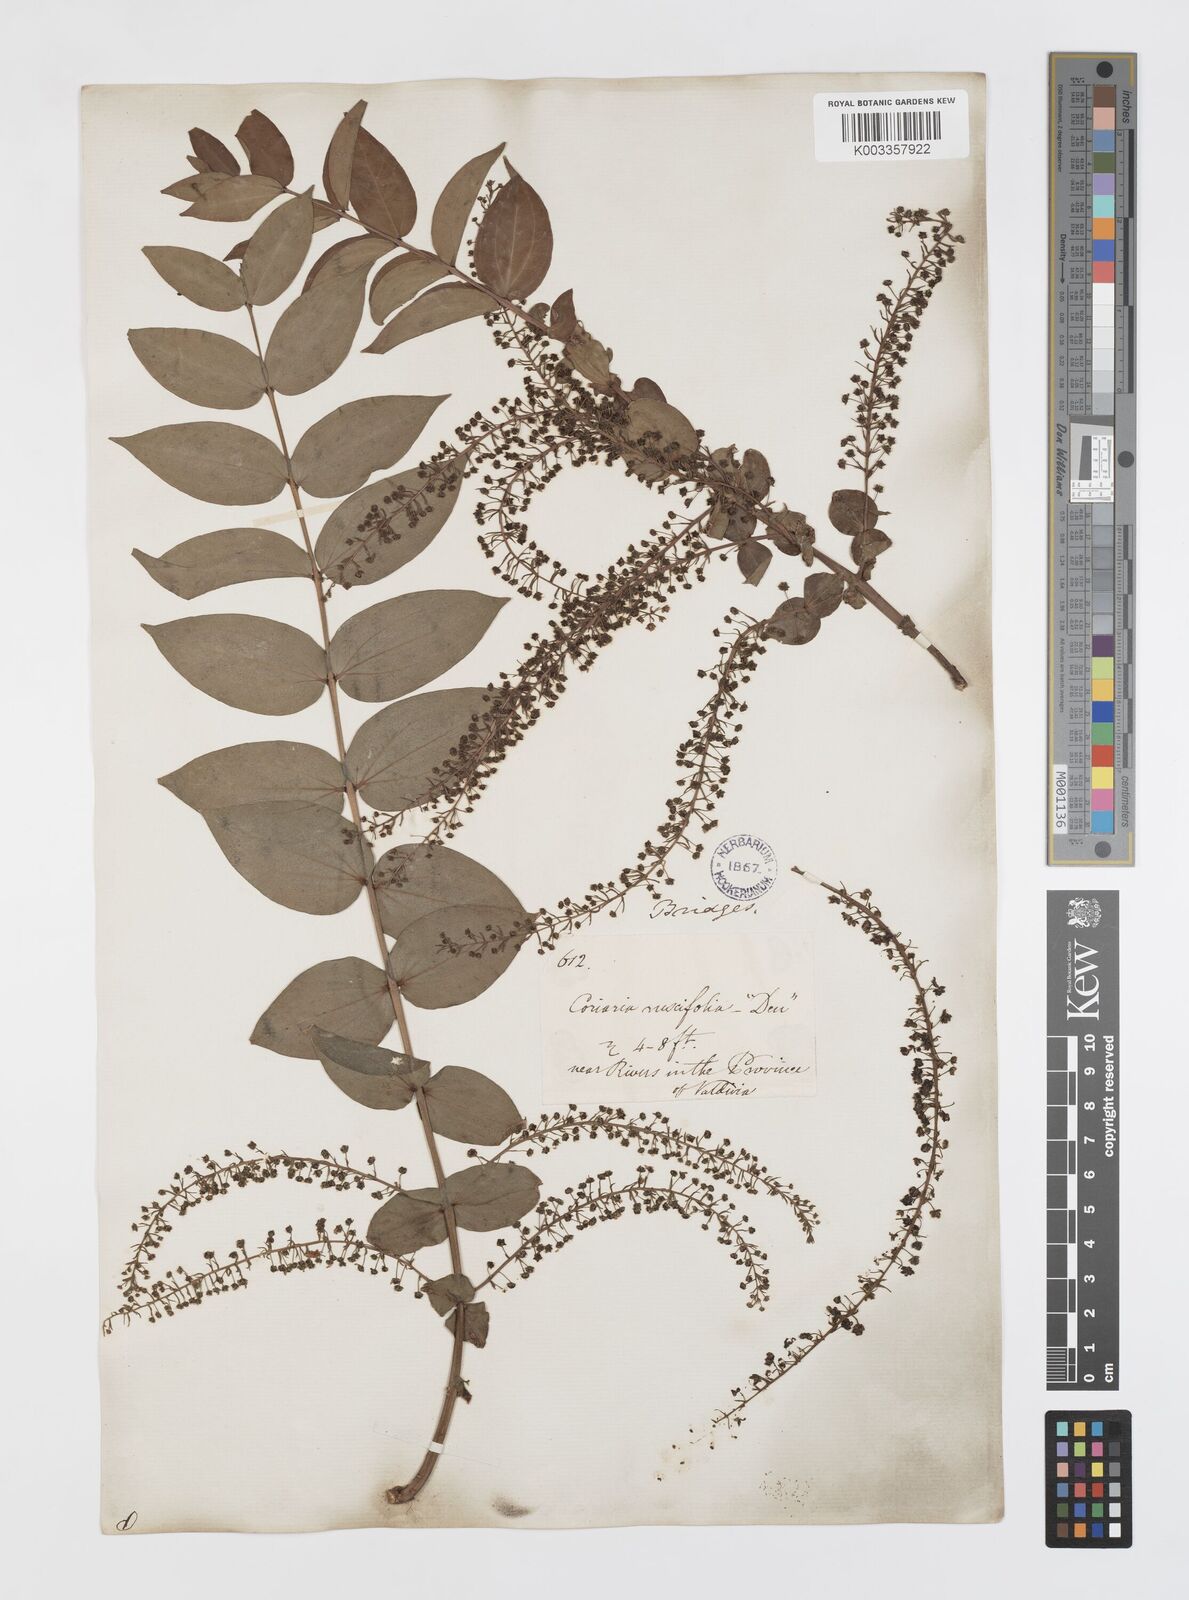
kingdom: Plantae
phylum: Tracheophyta
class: Magnoliopsida
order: Cucurbitales
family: Coriariaceae
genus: Coriaria
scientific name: Coriaria ruscifolia
